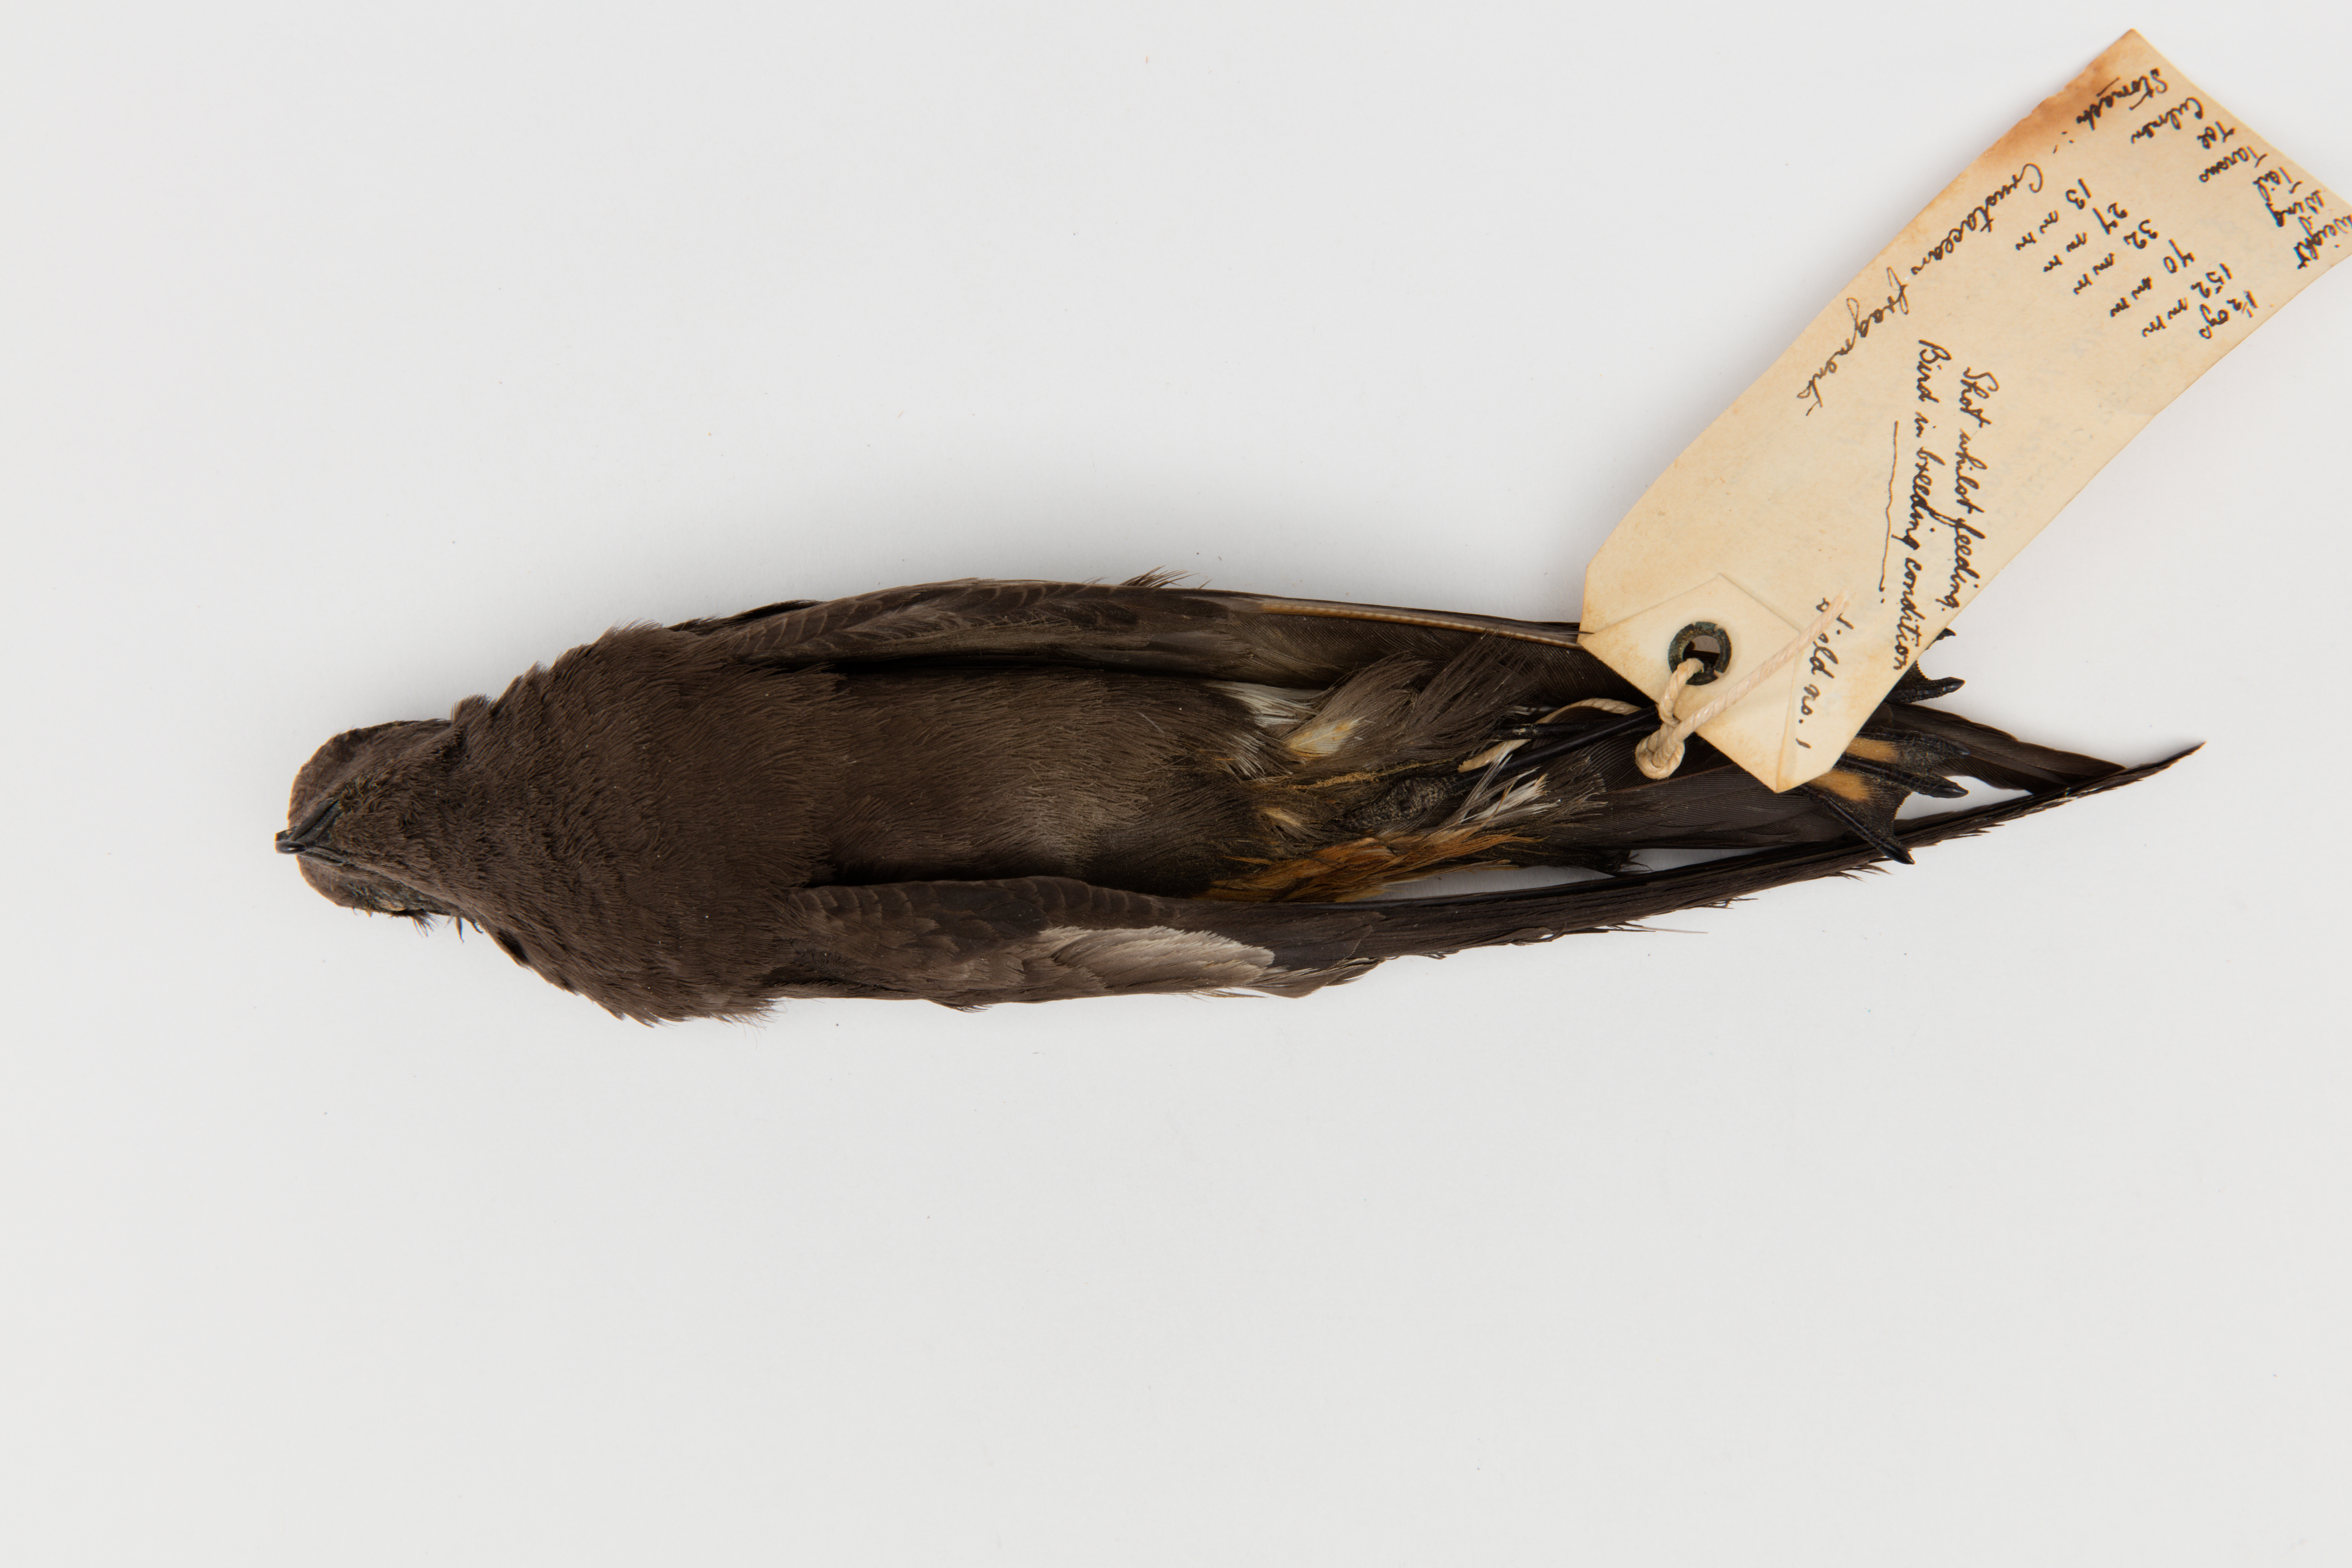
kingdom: Animalia
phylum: Chordata
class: Aves
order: Procellariiformes
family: Hydrobatidae
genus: Oceanites
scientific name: Oceanites oceanicus
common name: Wilson's storm petrel
